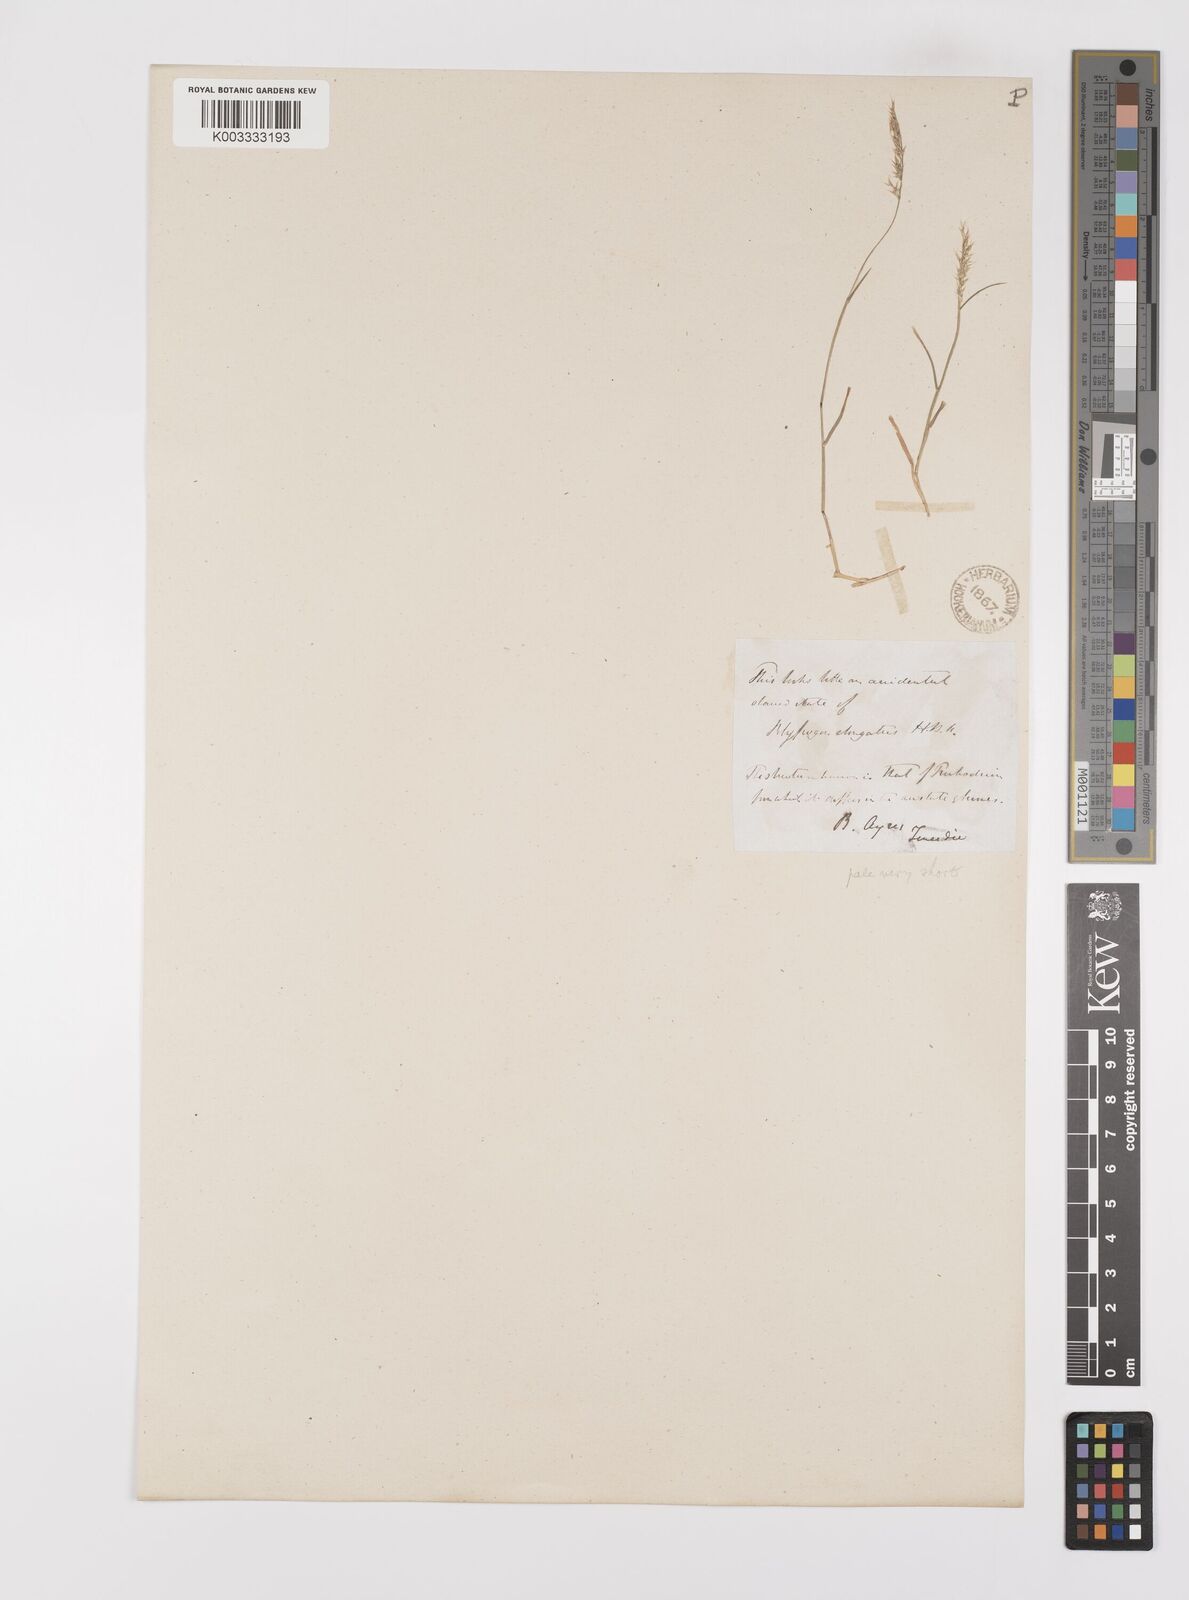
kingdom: Plantae
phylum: Tracheophyta
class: Liliopsida
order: Poales
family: Poaceae
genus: Polypogon
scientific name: Polypogon elongatus
